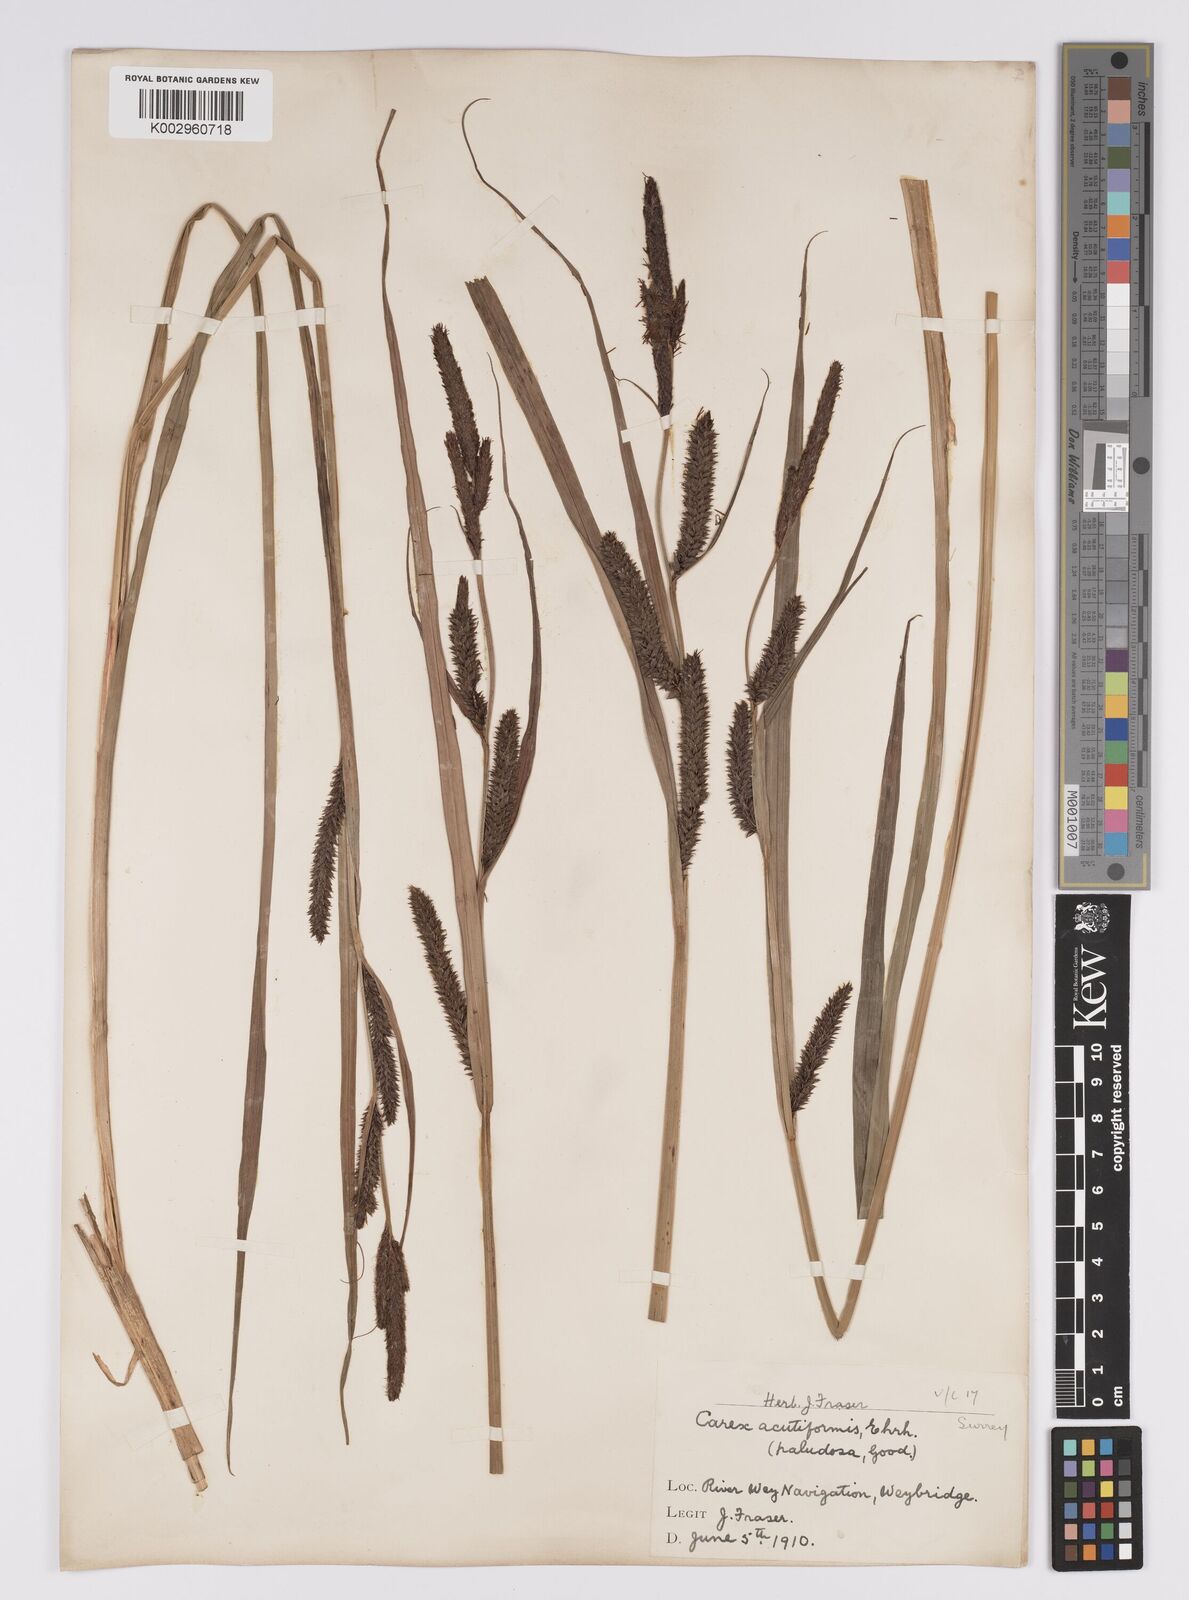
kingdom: Plantae
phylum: Tracheophyta
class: Liliopsida
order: Poales
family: Cyperaceae
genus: Carex
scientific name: Carex acutiformis
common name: Lesser pond-sedge
